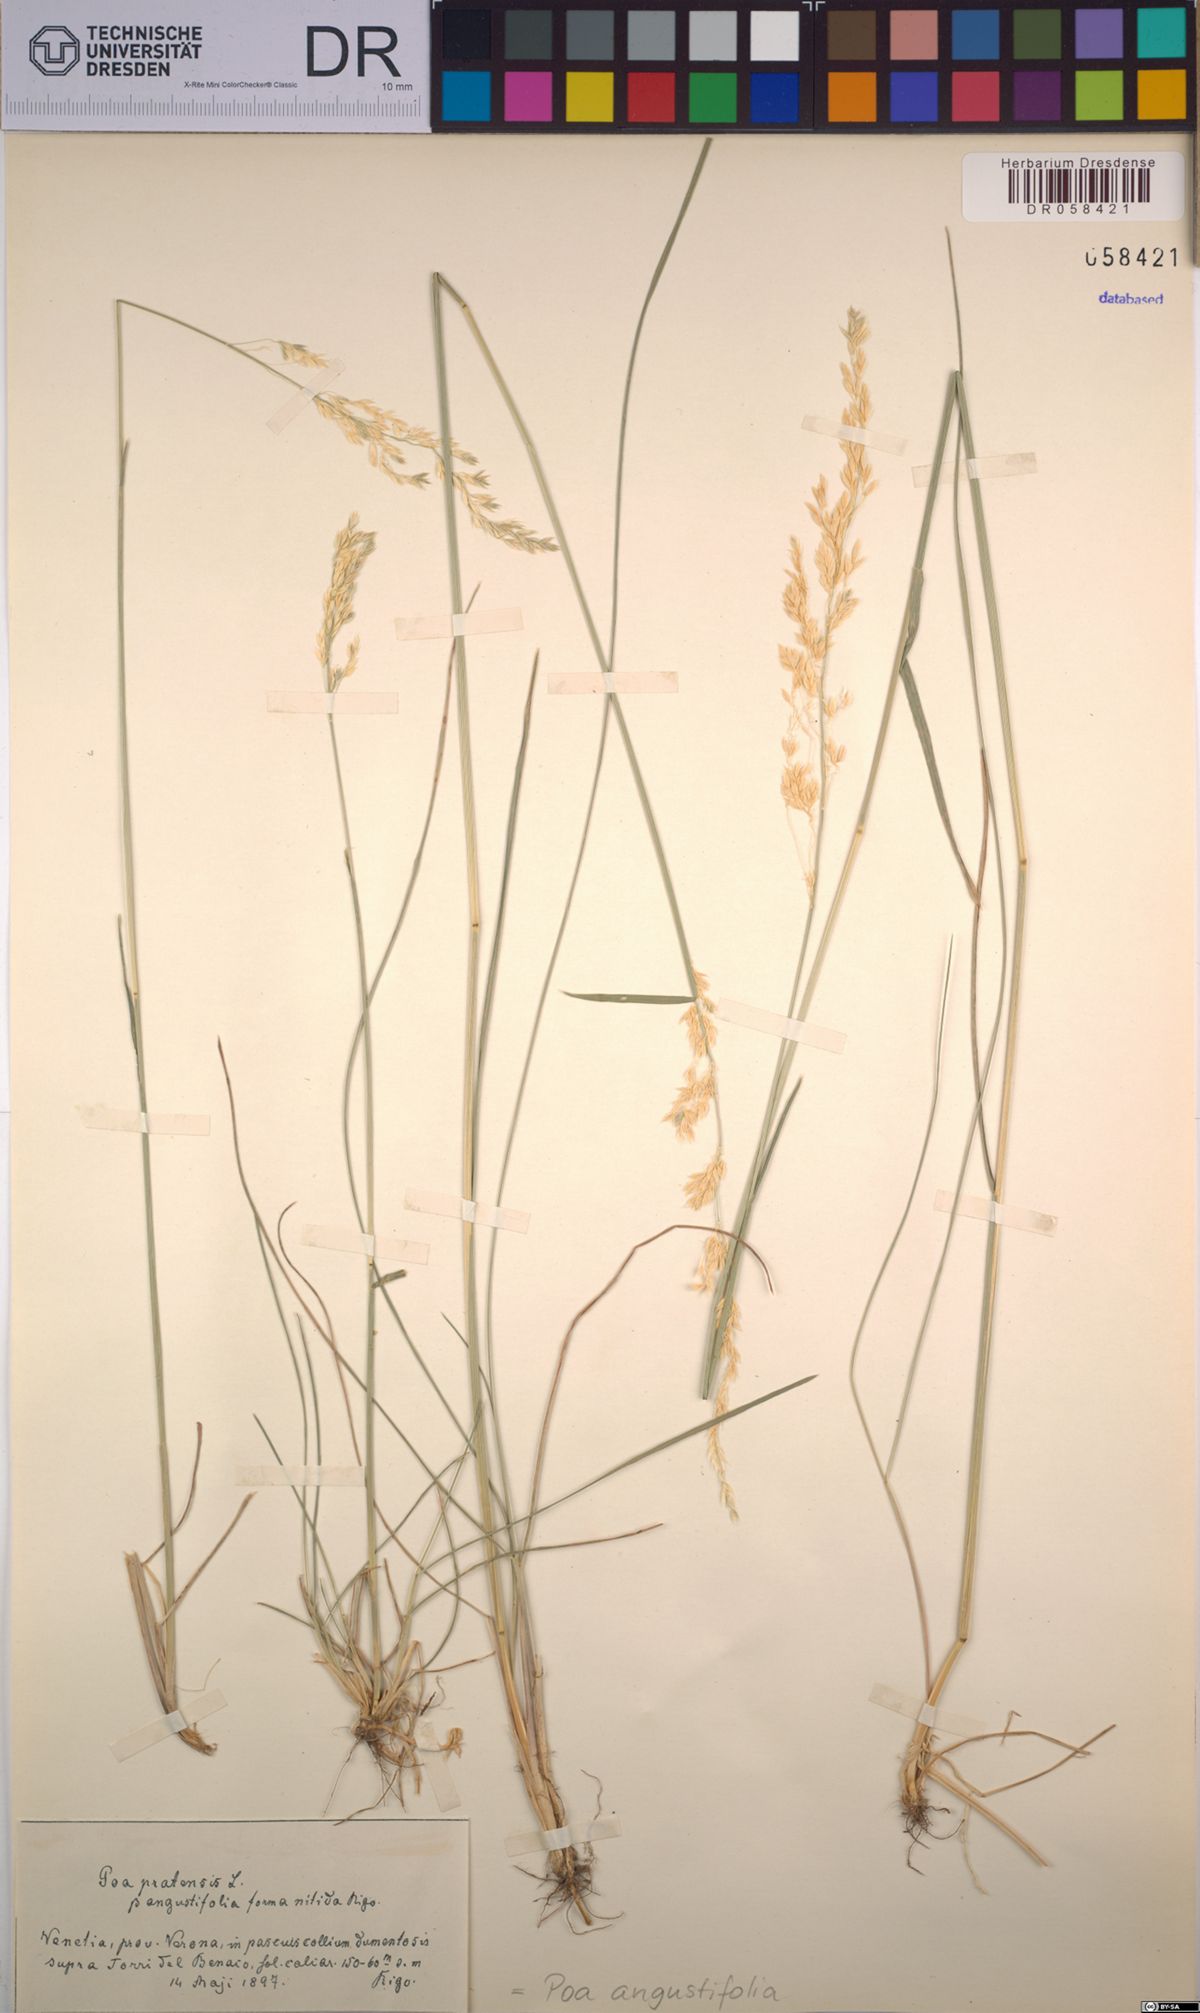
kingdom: Plantae
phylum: Tracheophyta
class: Liliopsida
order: Poales
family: Poaceae
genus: Poa
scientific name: Poa angustifolia
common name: Narrow-leaved meadow-grass
